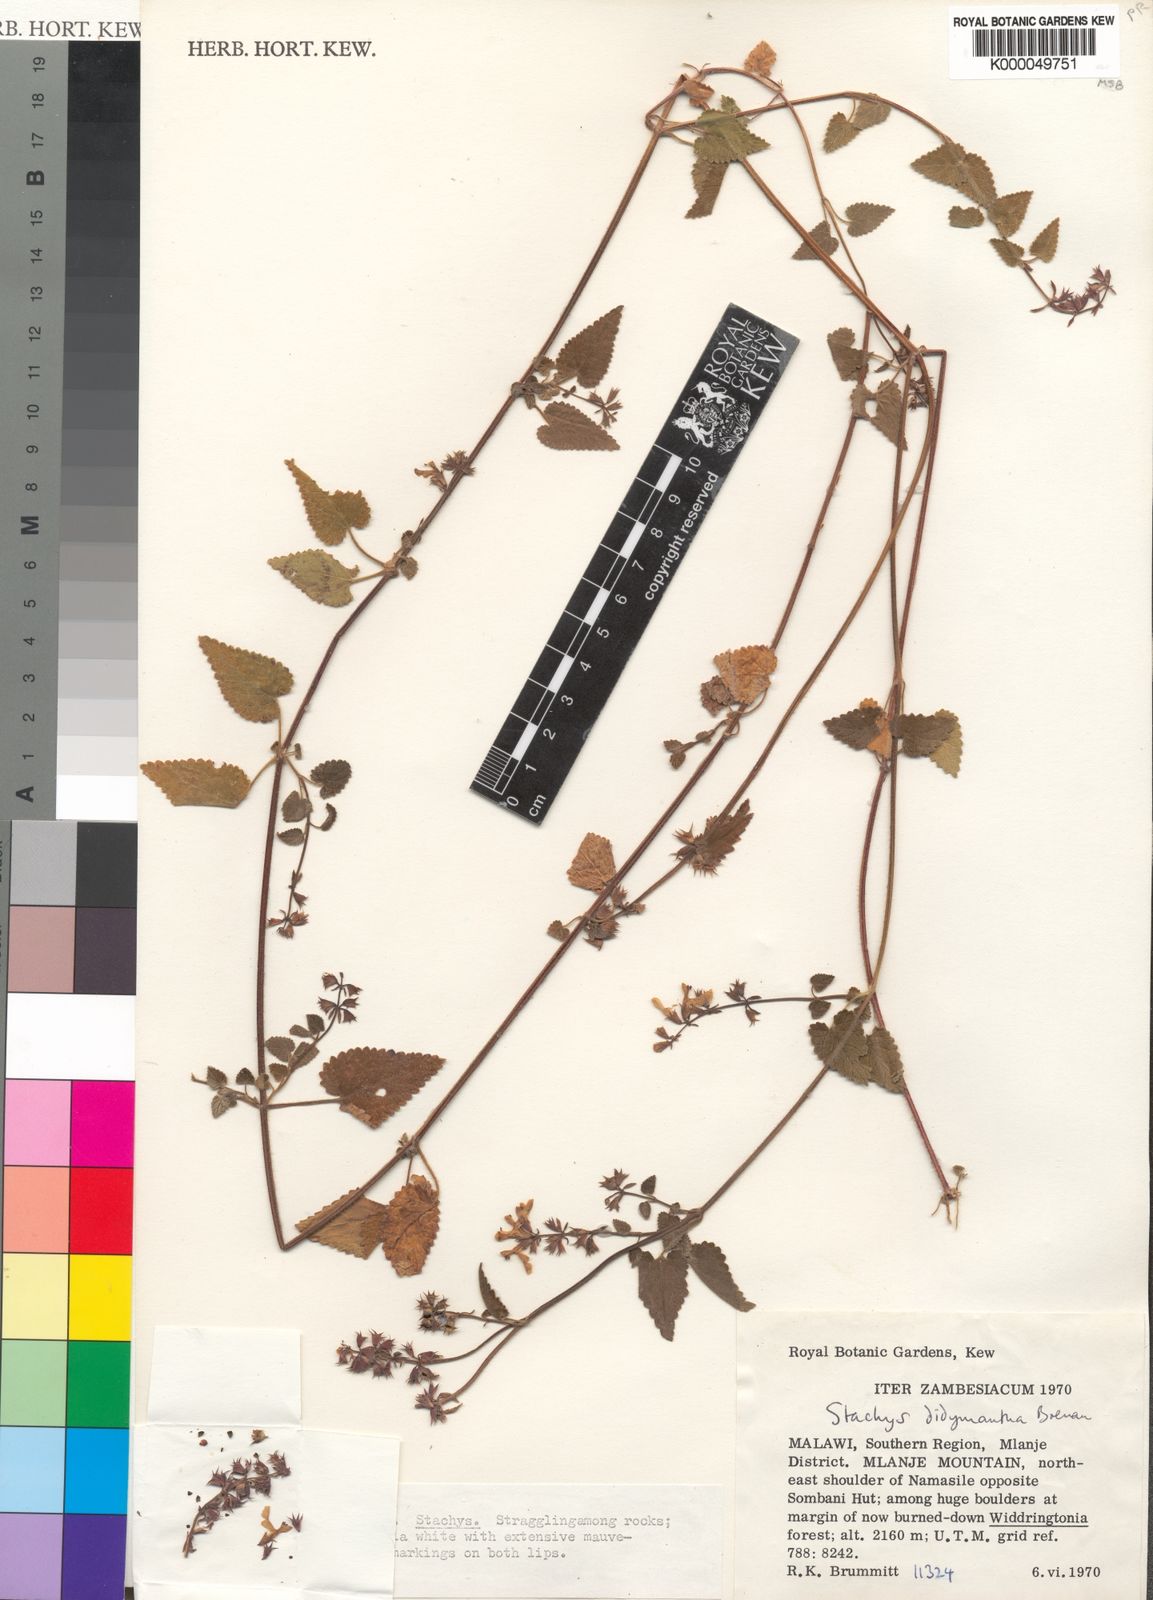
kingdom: Plantae
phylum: Tracheophyta
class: Magnoliopsida
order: Lamiales
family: Lamiaceae
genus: Stachys
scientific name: Stachys didymantha
